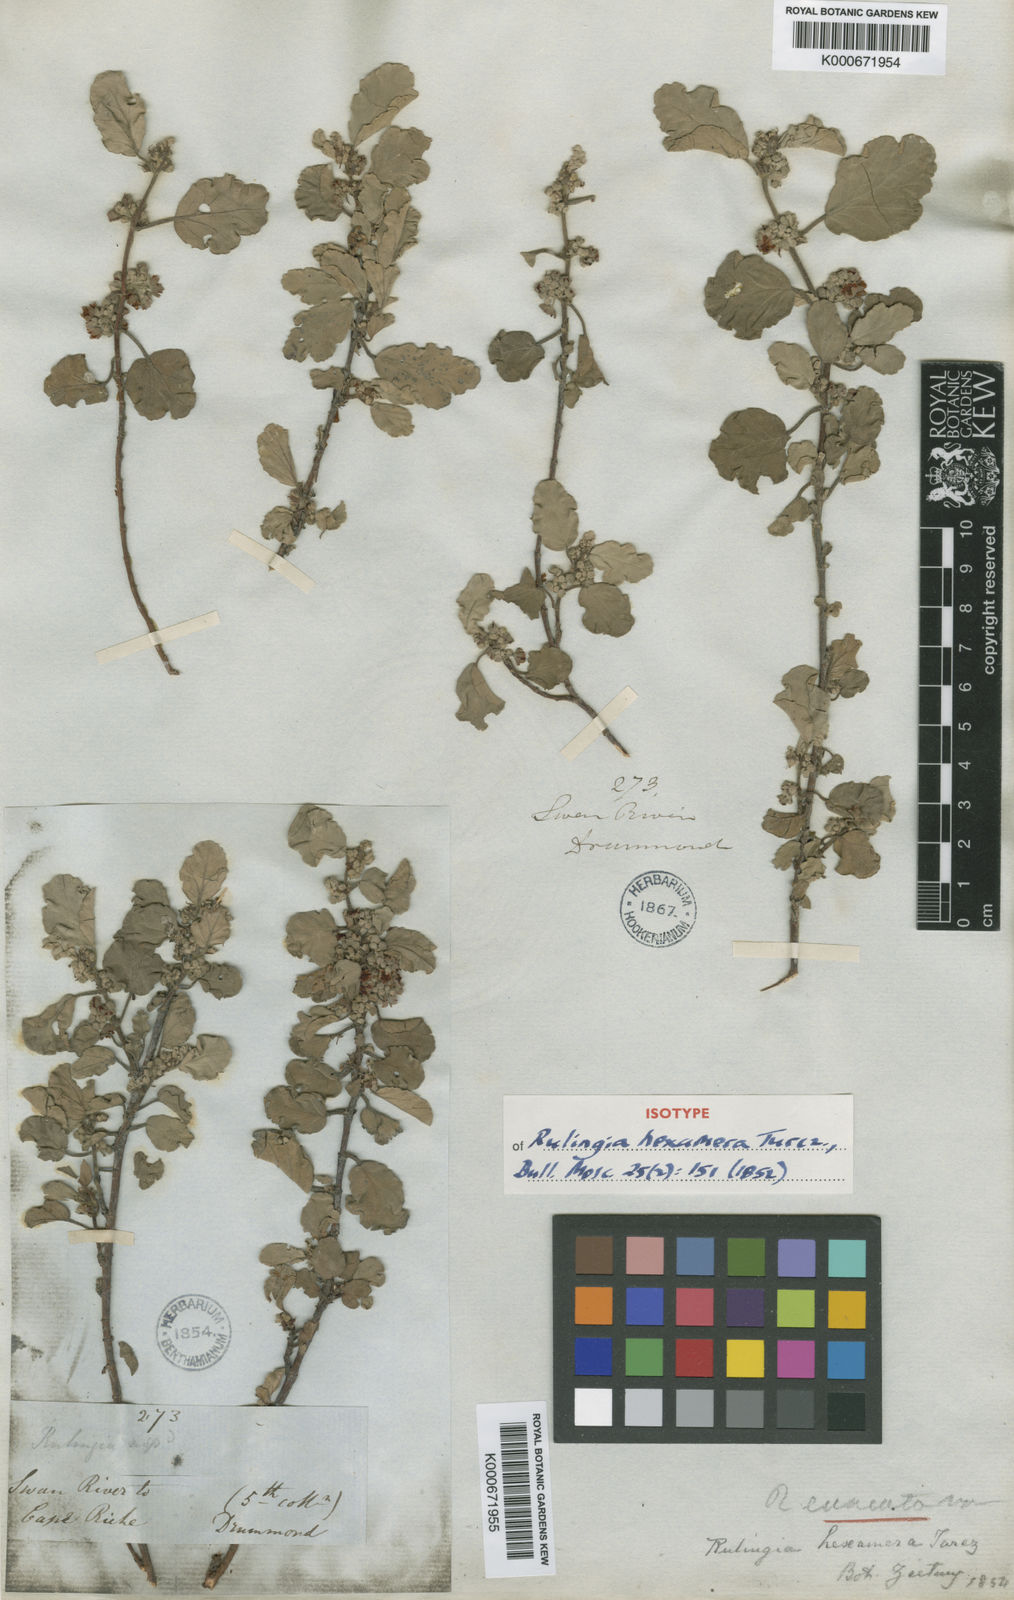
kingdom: Plantae
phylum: Tracheophyta
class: Magnoliopsida
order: Malvales
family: Malvaceae
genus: Androcalva
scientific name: Androcalva cuneata
